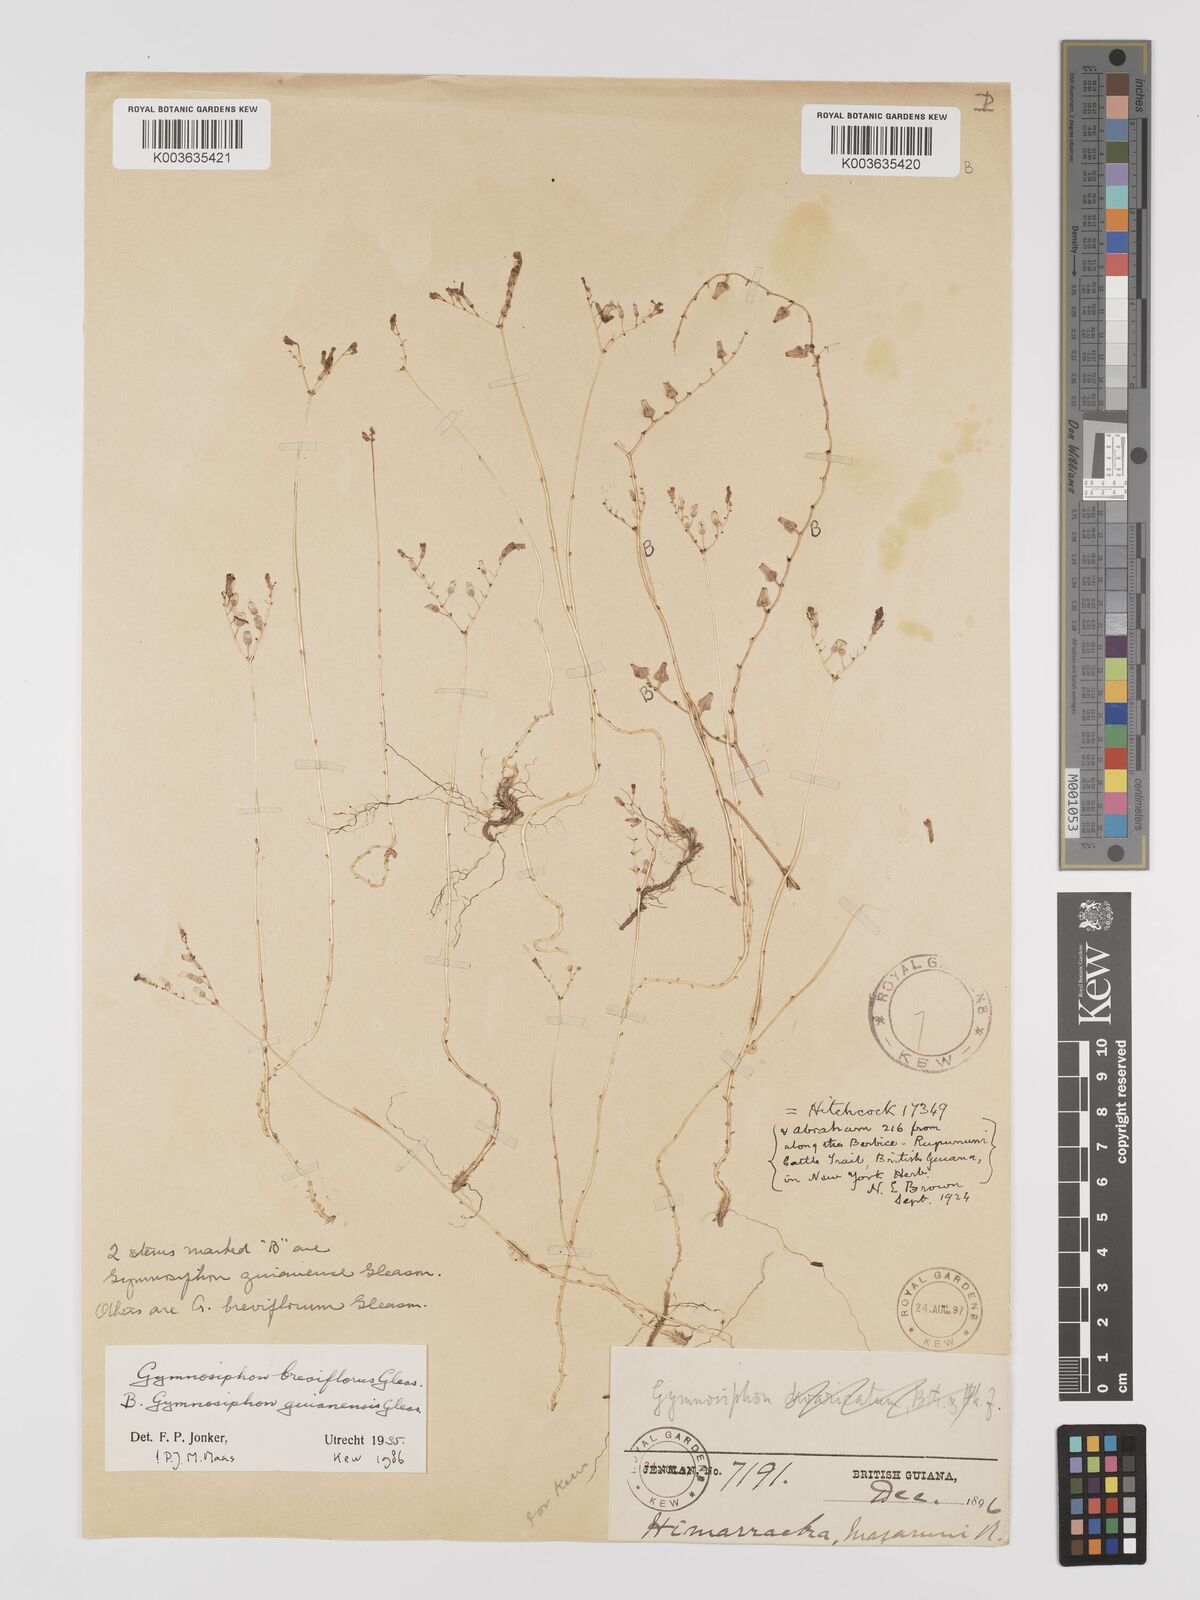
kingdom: Plantae
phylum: Tracheophyta
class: Liliopsida
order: Dioscoreales
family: Burmanniaceae
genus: Gymnosiphon
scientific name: Gymnosiphon breviflorus
